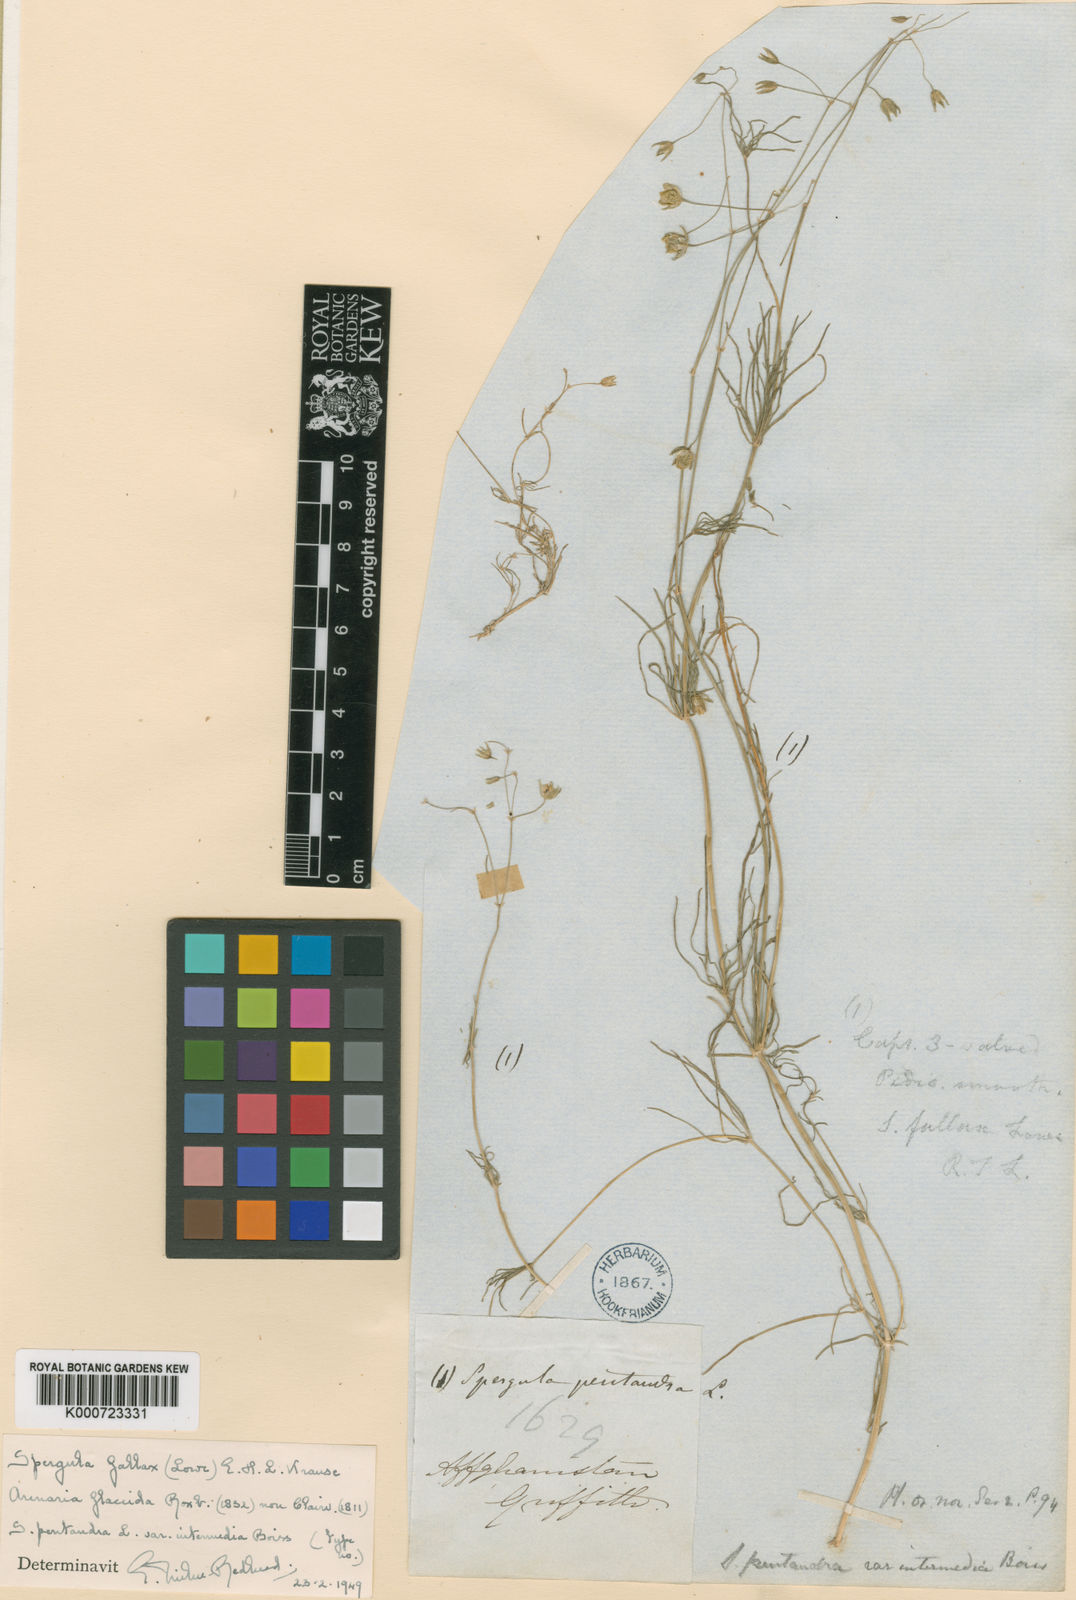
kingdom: Plantae
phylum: Tracheophyta
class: Magnoliopsida
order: Caryophyllales
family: Caryophyllaceae
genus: Spergularia
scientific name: Spergularia flaccida
